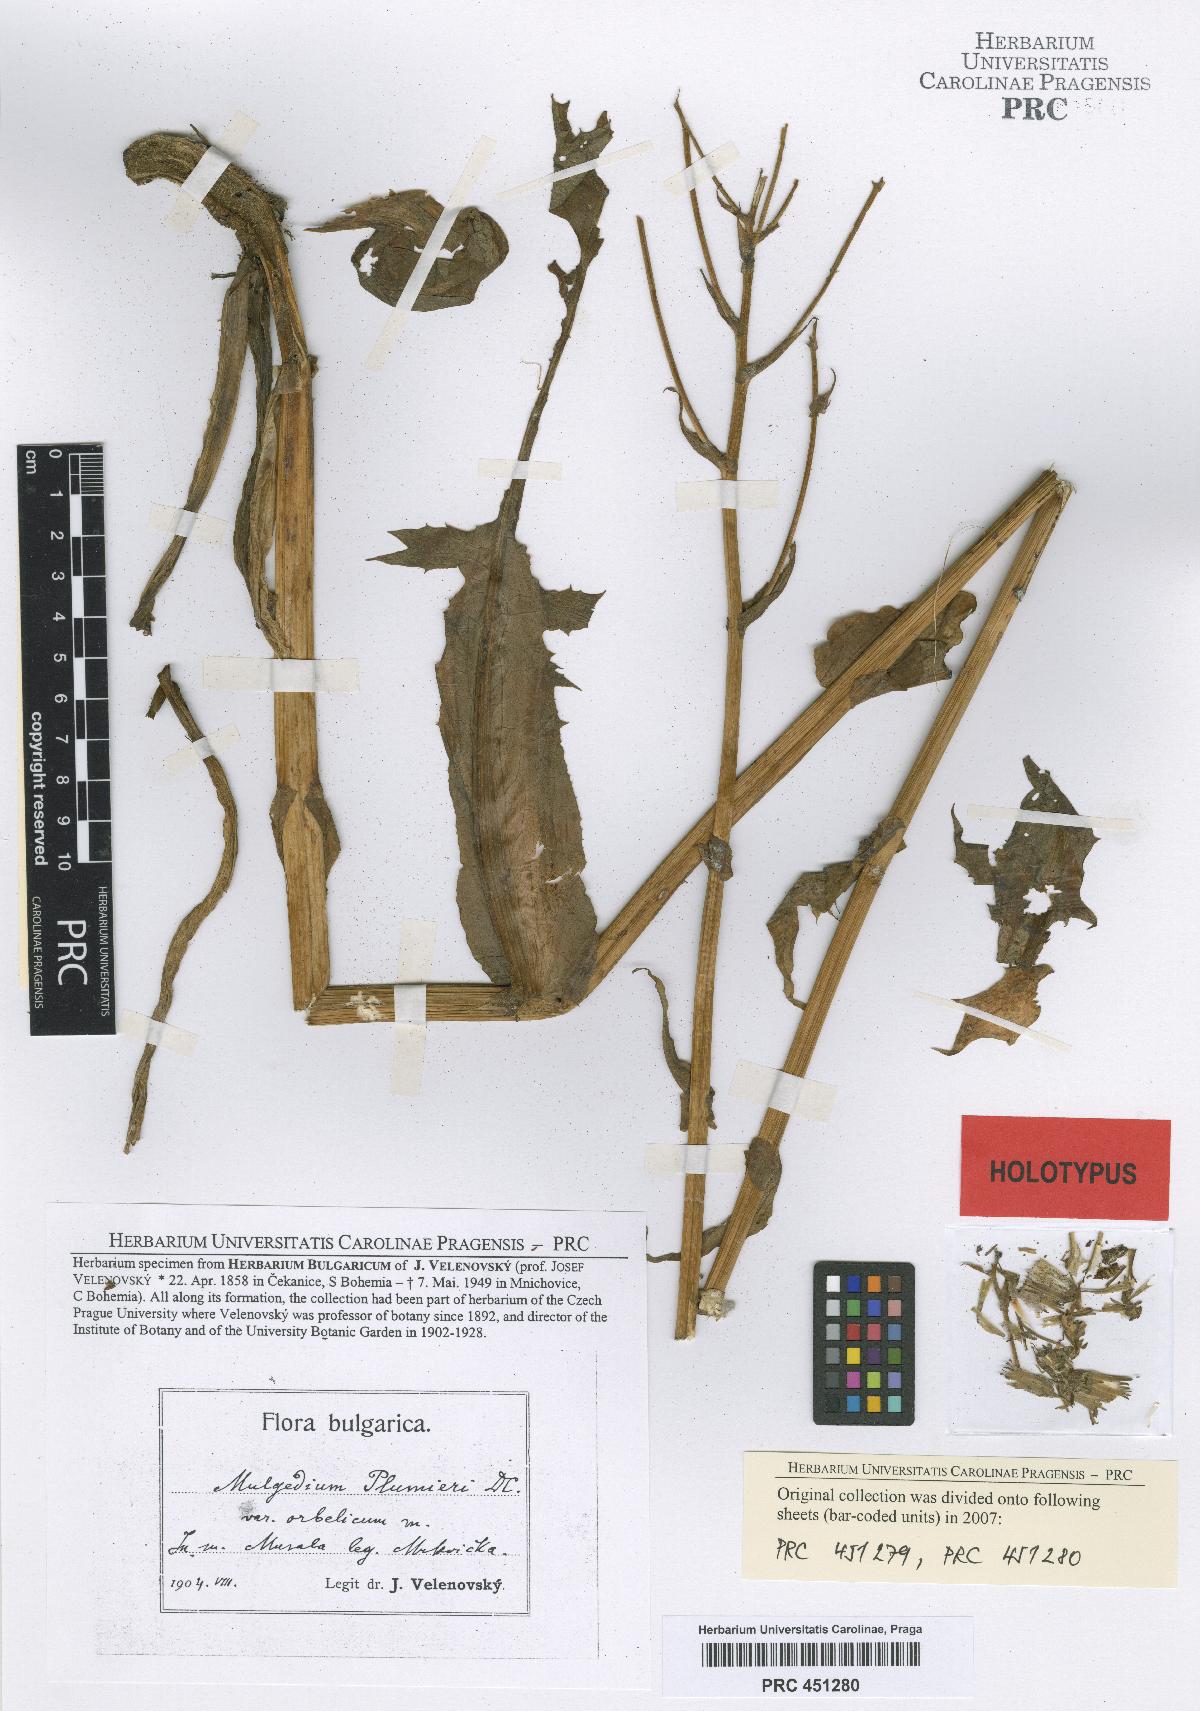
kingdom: Plantae
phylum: Tracheophyta
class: Magnoliopsida
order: Asterales
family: Asteraceae
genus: Lactuca
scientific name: Lactuca plumieri
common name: Hairless blue-sow-thistle
